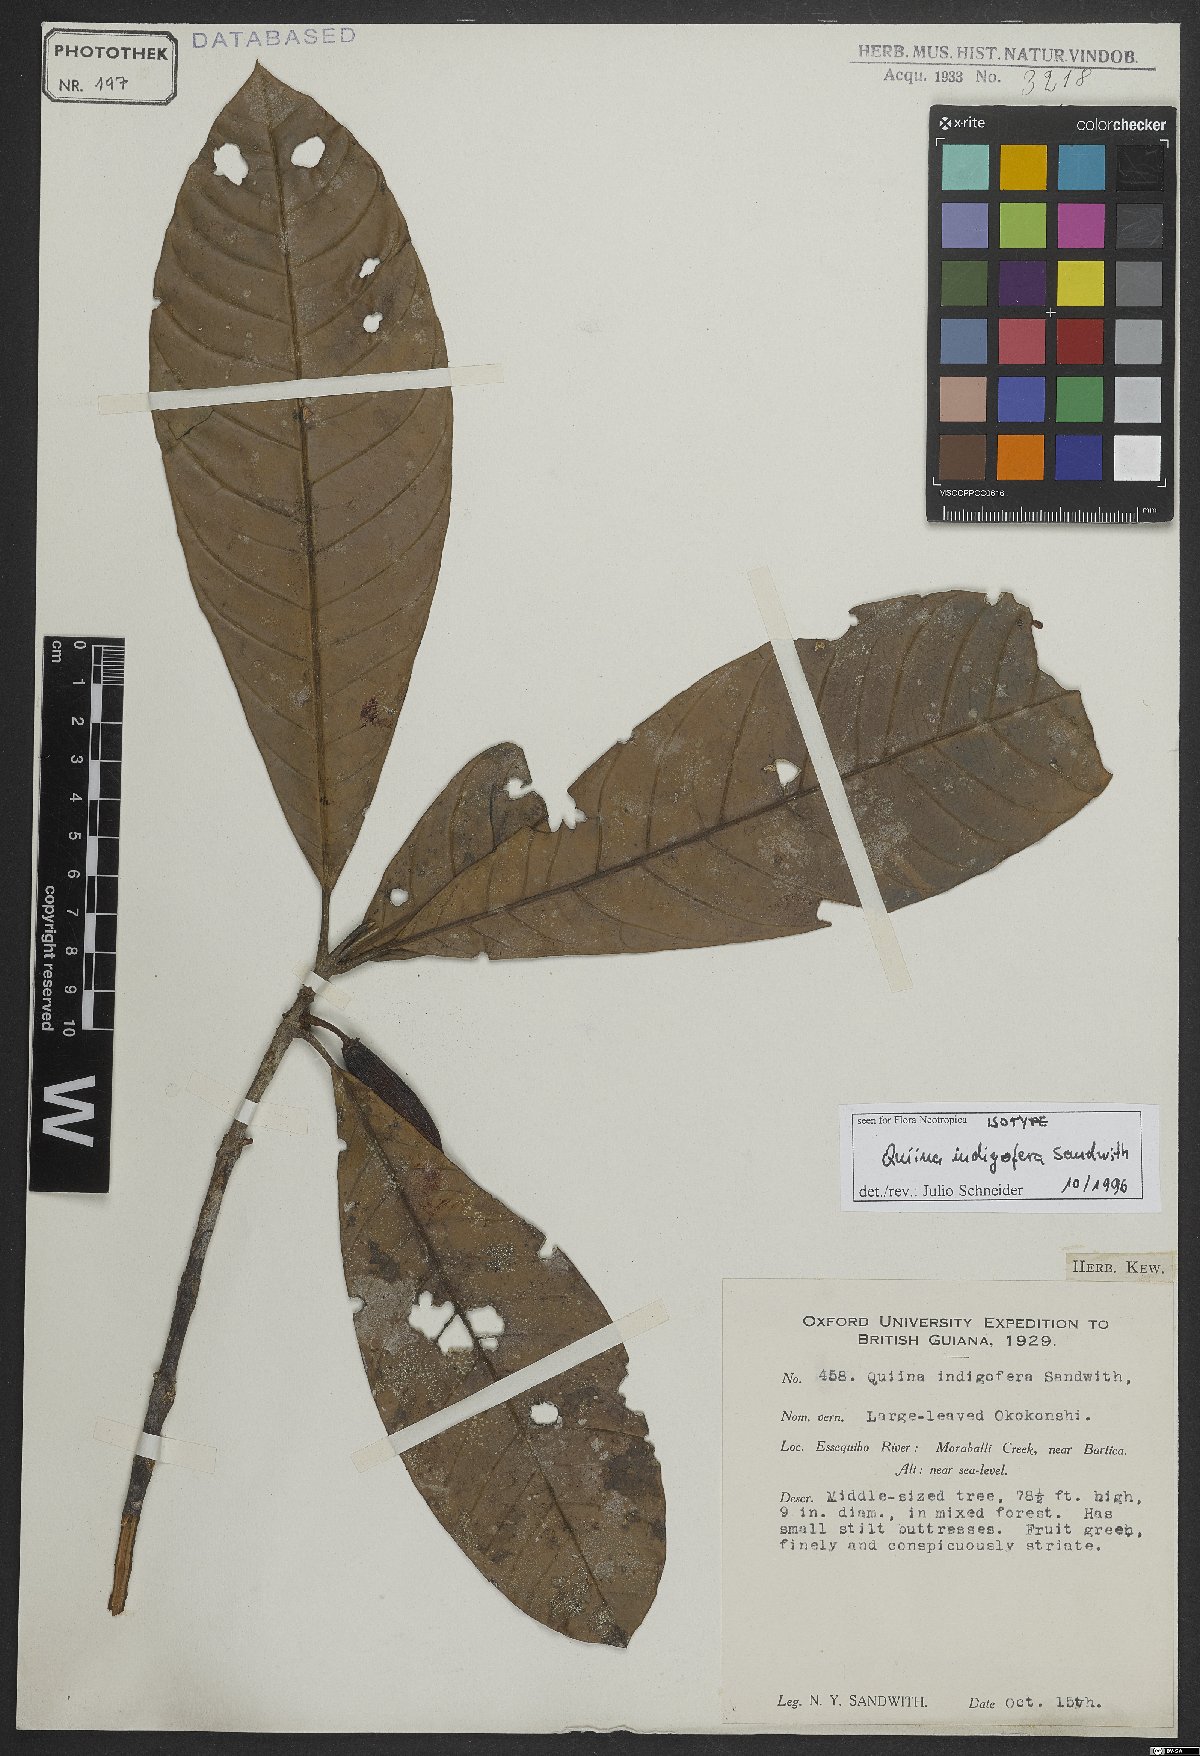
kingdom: Plantae
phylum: Tracheophyta
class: Magnoliopsida
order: Malpighiales
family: Quiinaceae
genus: Quiina
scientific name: Quiina indigofera
